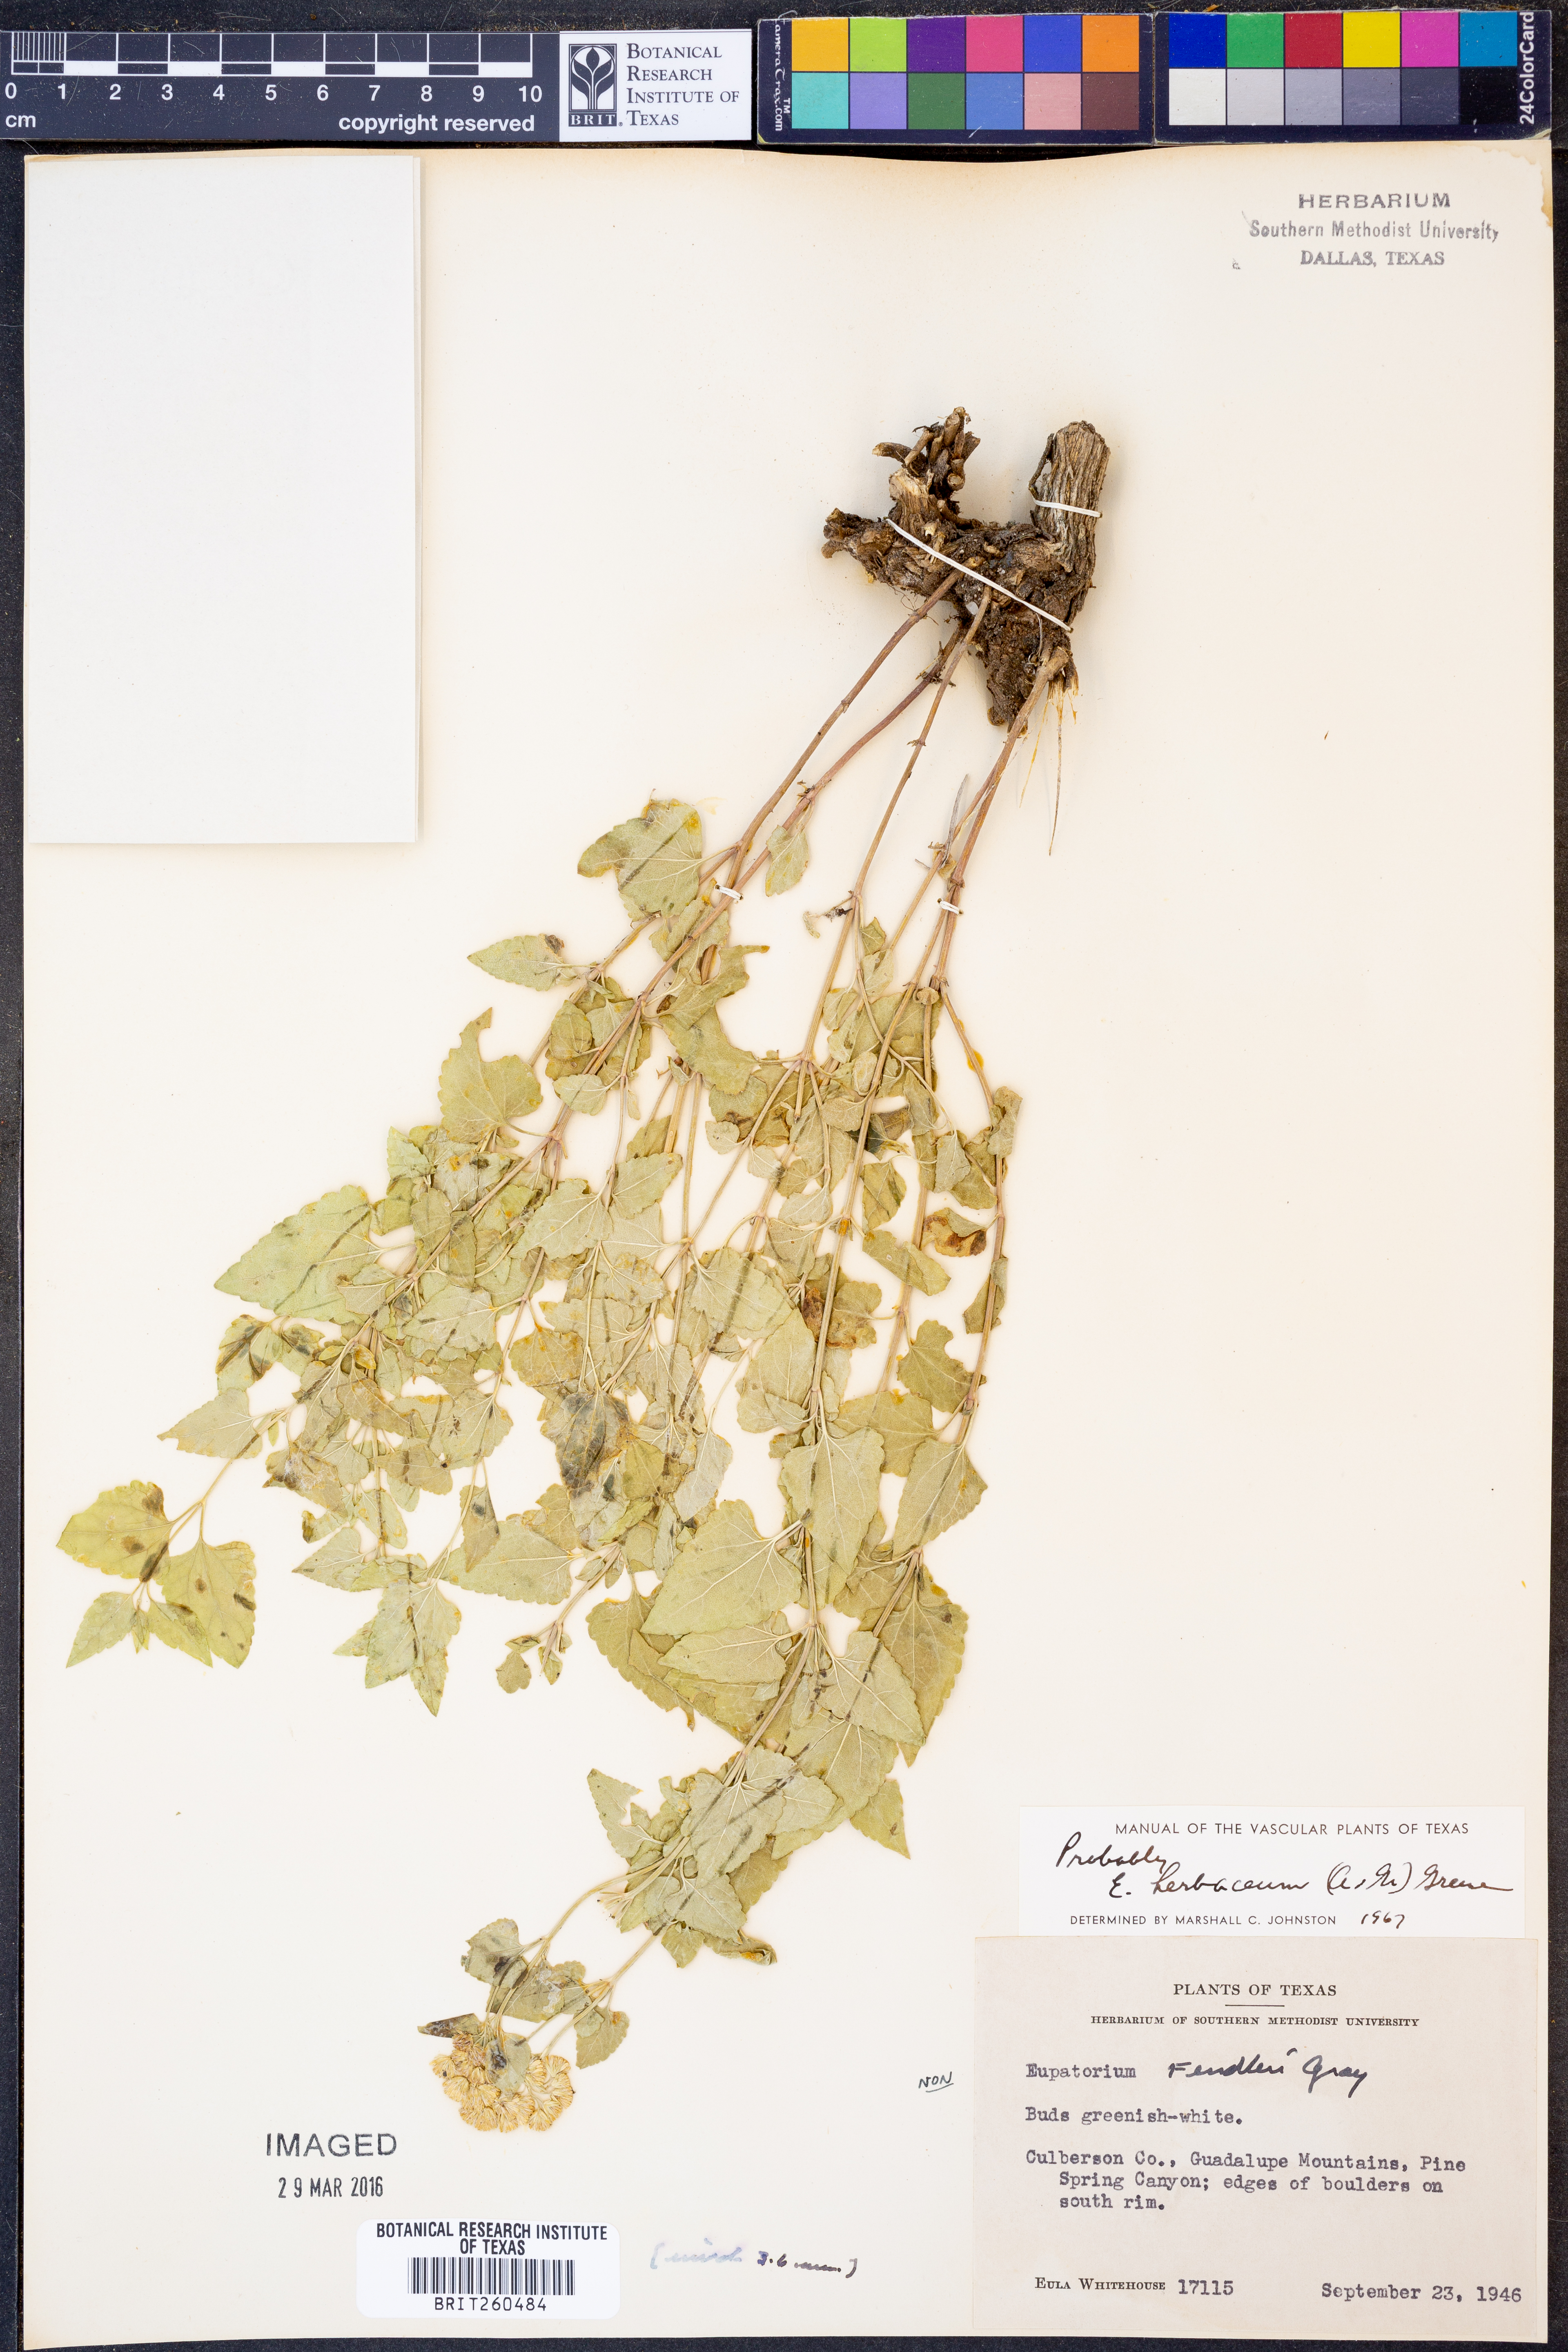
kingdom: Plantae
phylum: Tracheophyta
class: Magnoliopsida
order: Asterales
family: Asteraceae
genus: Ageratina
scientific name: Ageratina herbacea
